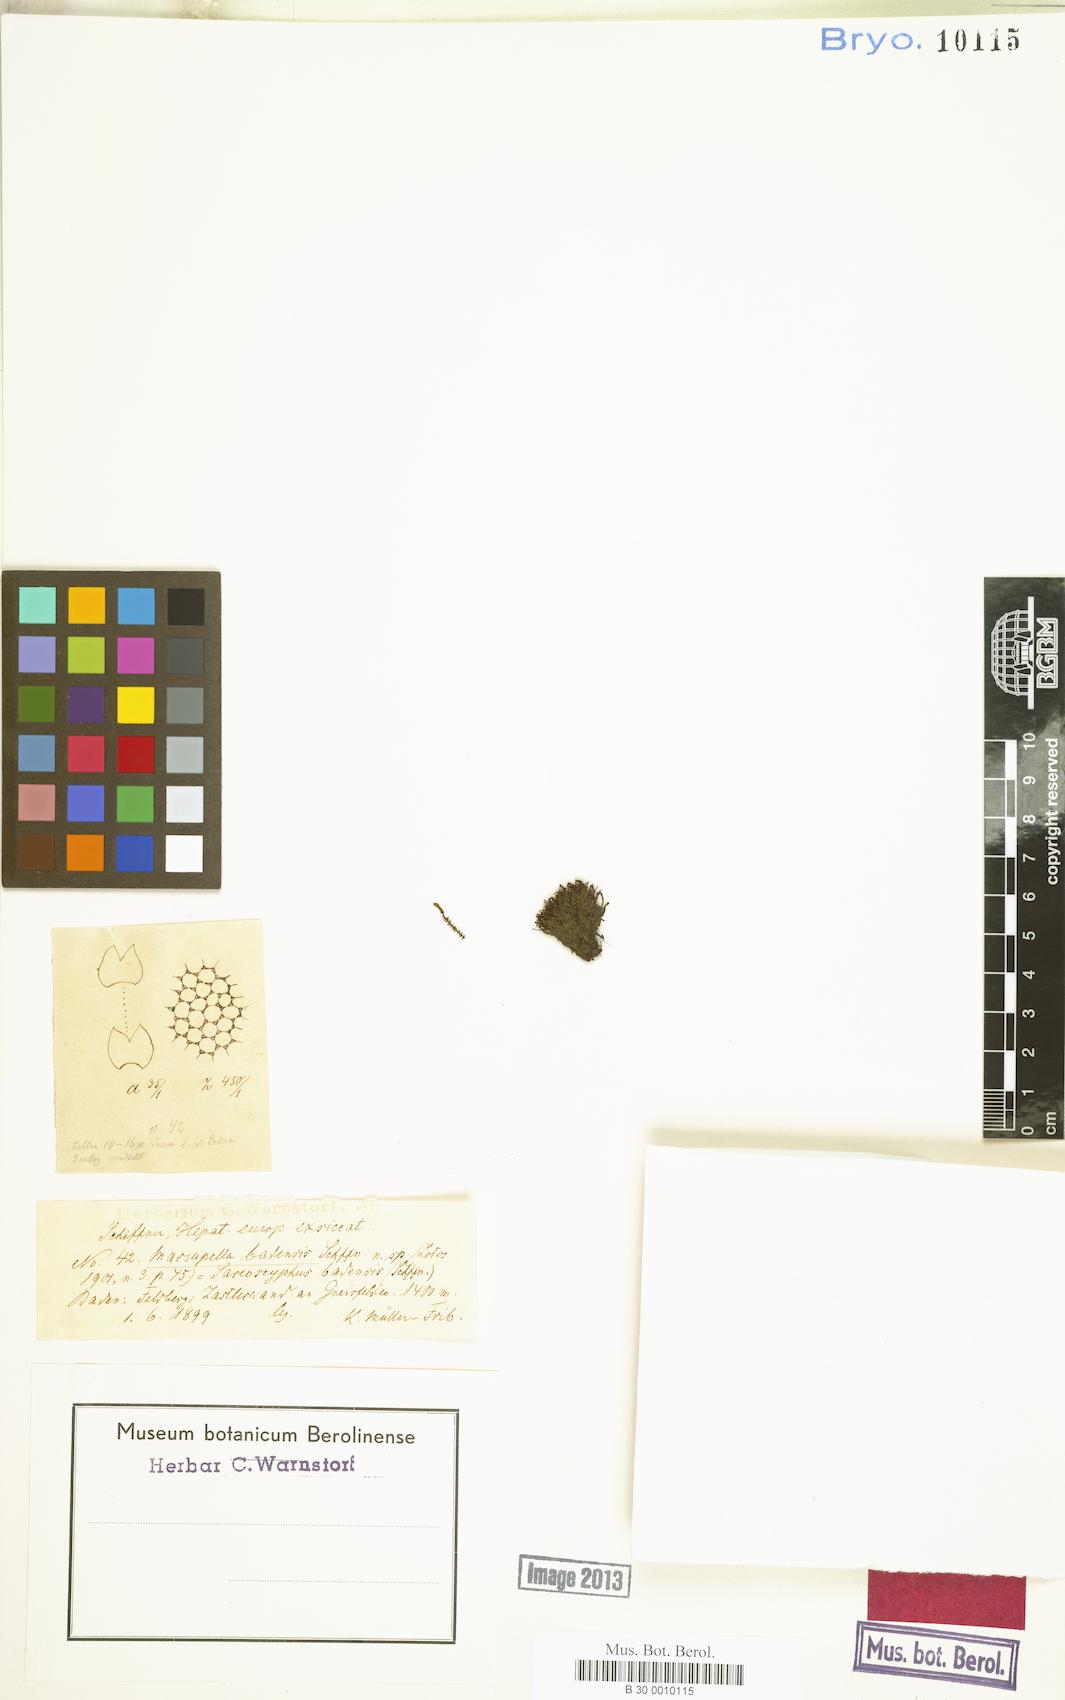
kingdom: Plantae
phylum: Marchantiophyta
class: Jungermanniopsida
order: Jungermanniales
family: Gymnomitriaceae
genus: Marsupella
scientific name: Marsupella funckii
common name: Funck's rustwort
